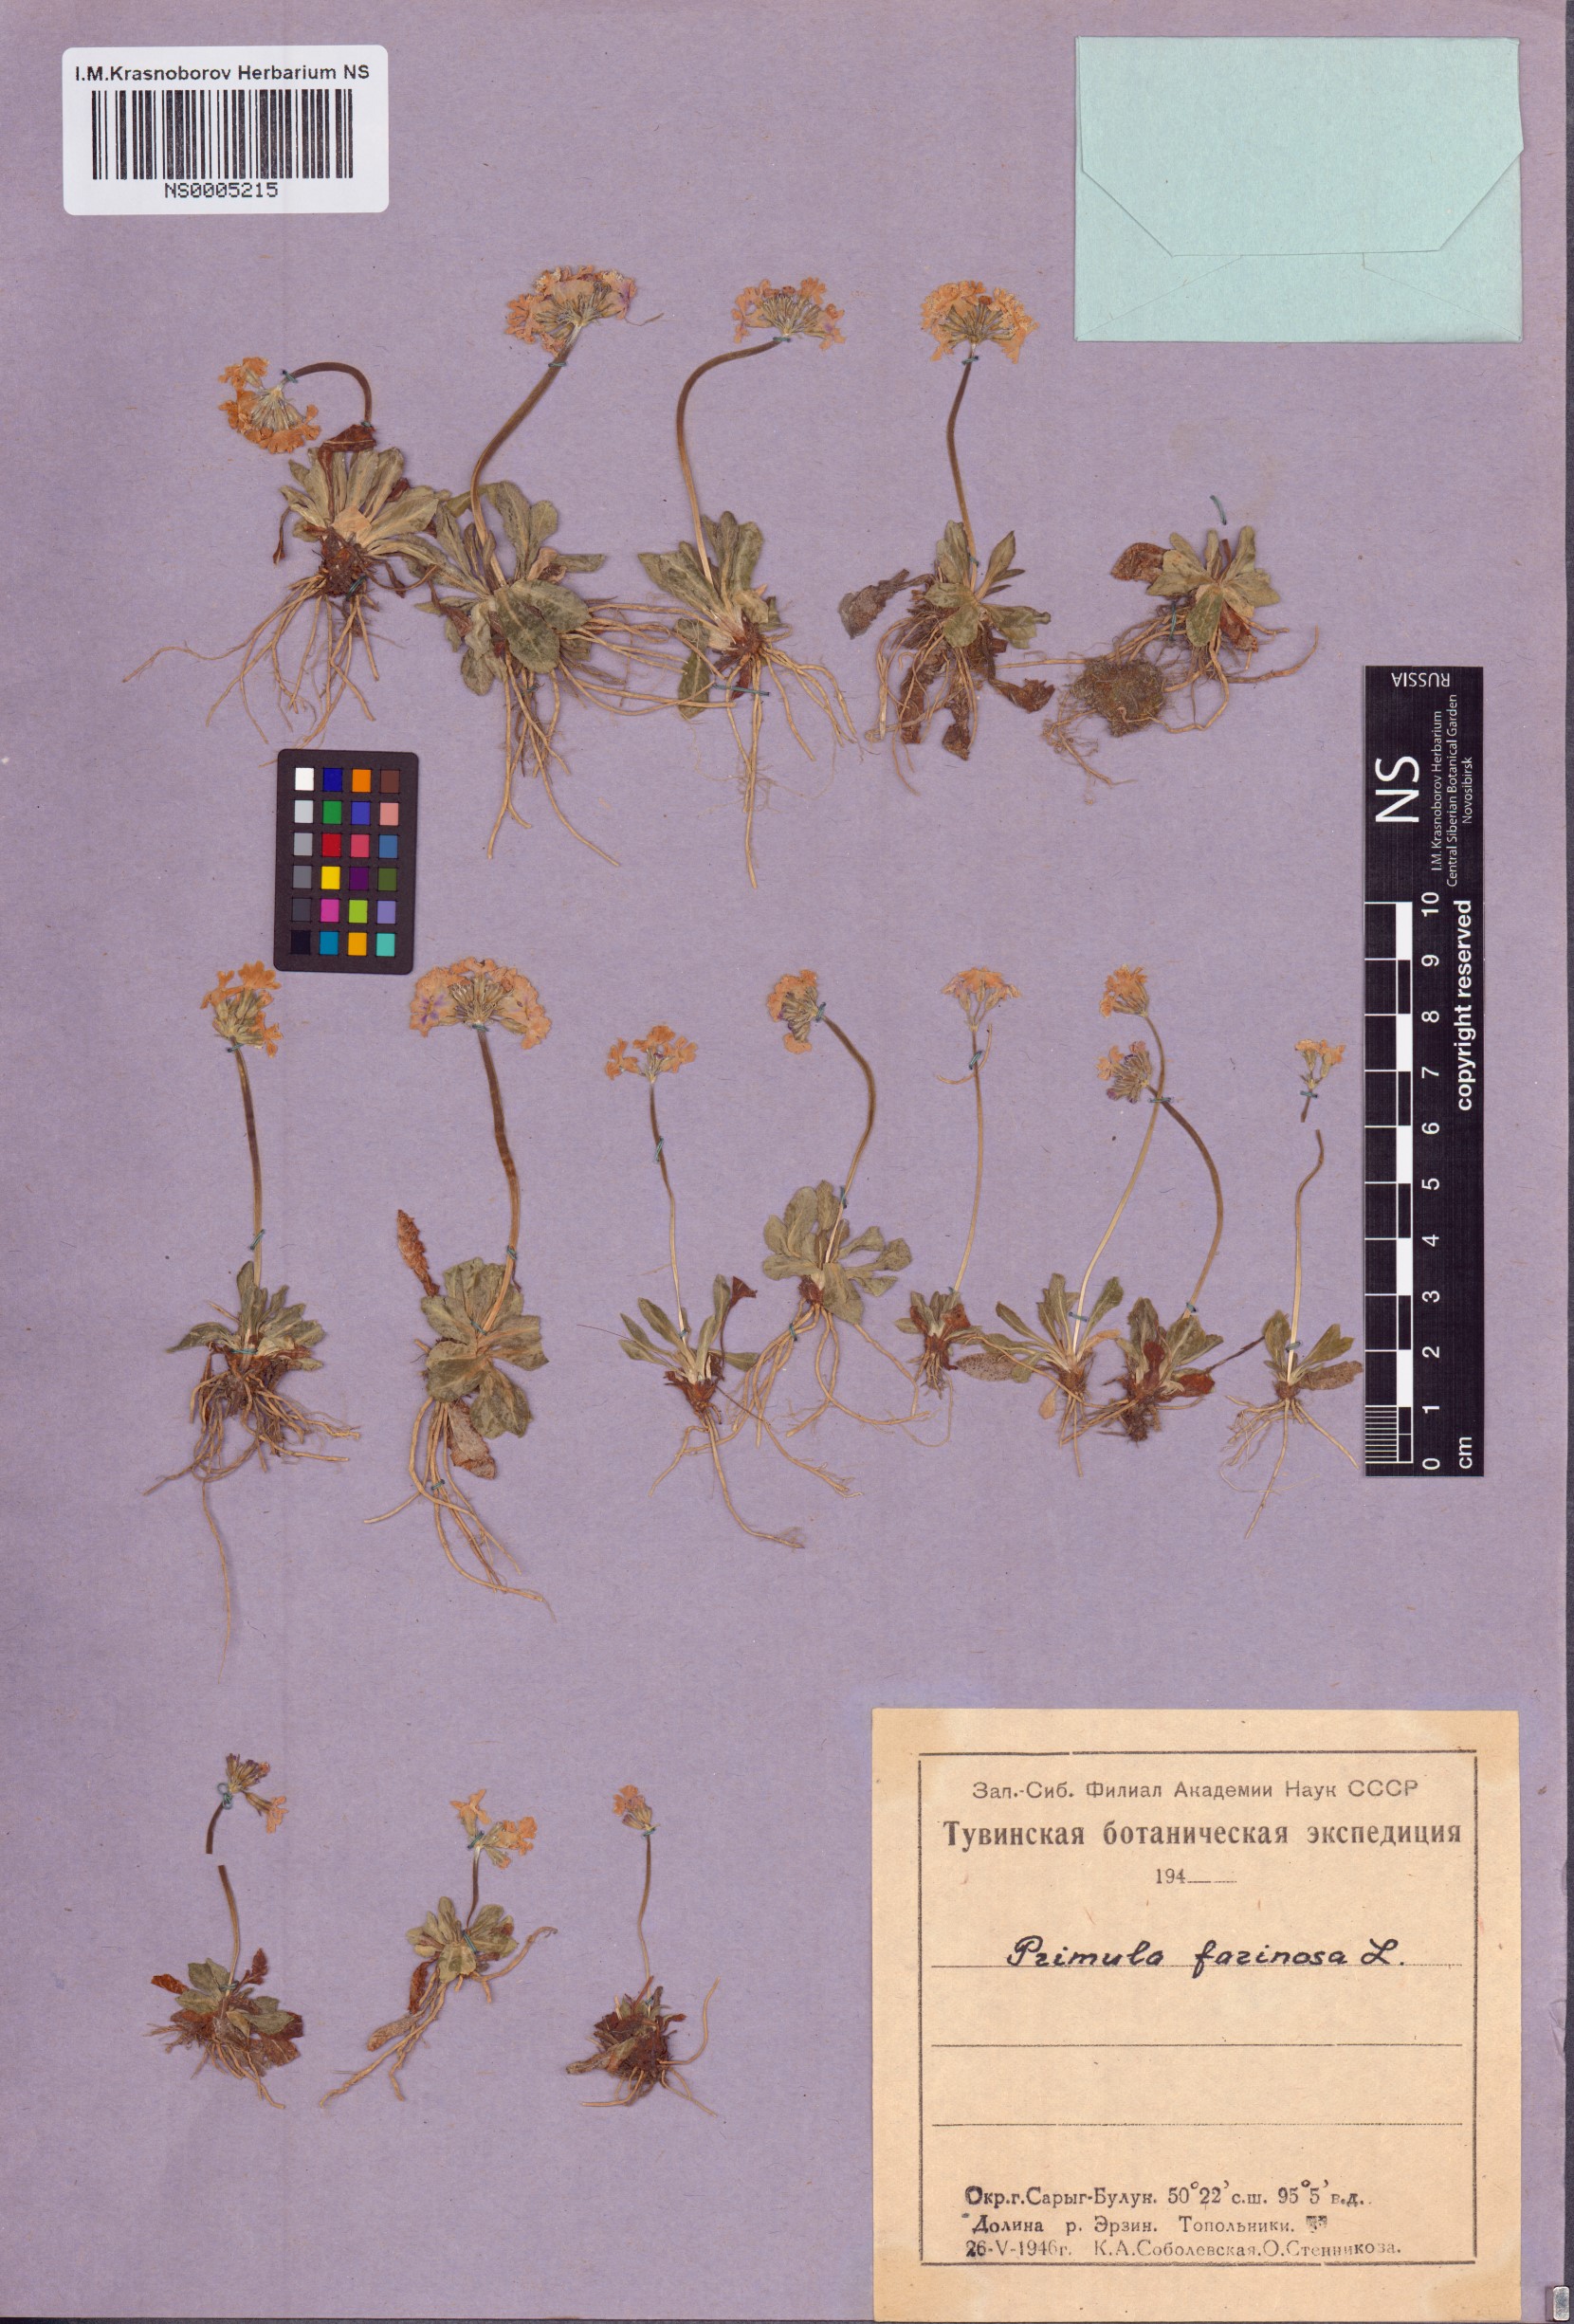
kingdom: Plantae
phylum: Tracheophyta
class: Magnoliopsida
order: Ericales
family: Primulaceae
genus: Primula
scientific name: Primula farinosa
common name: Bird's-eye primrose
